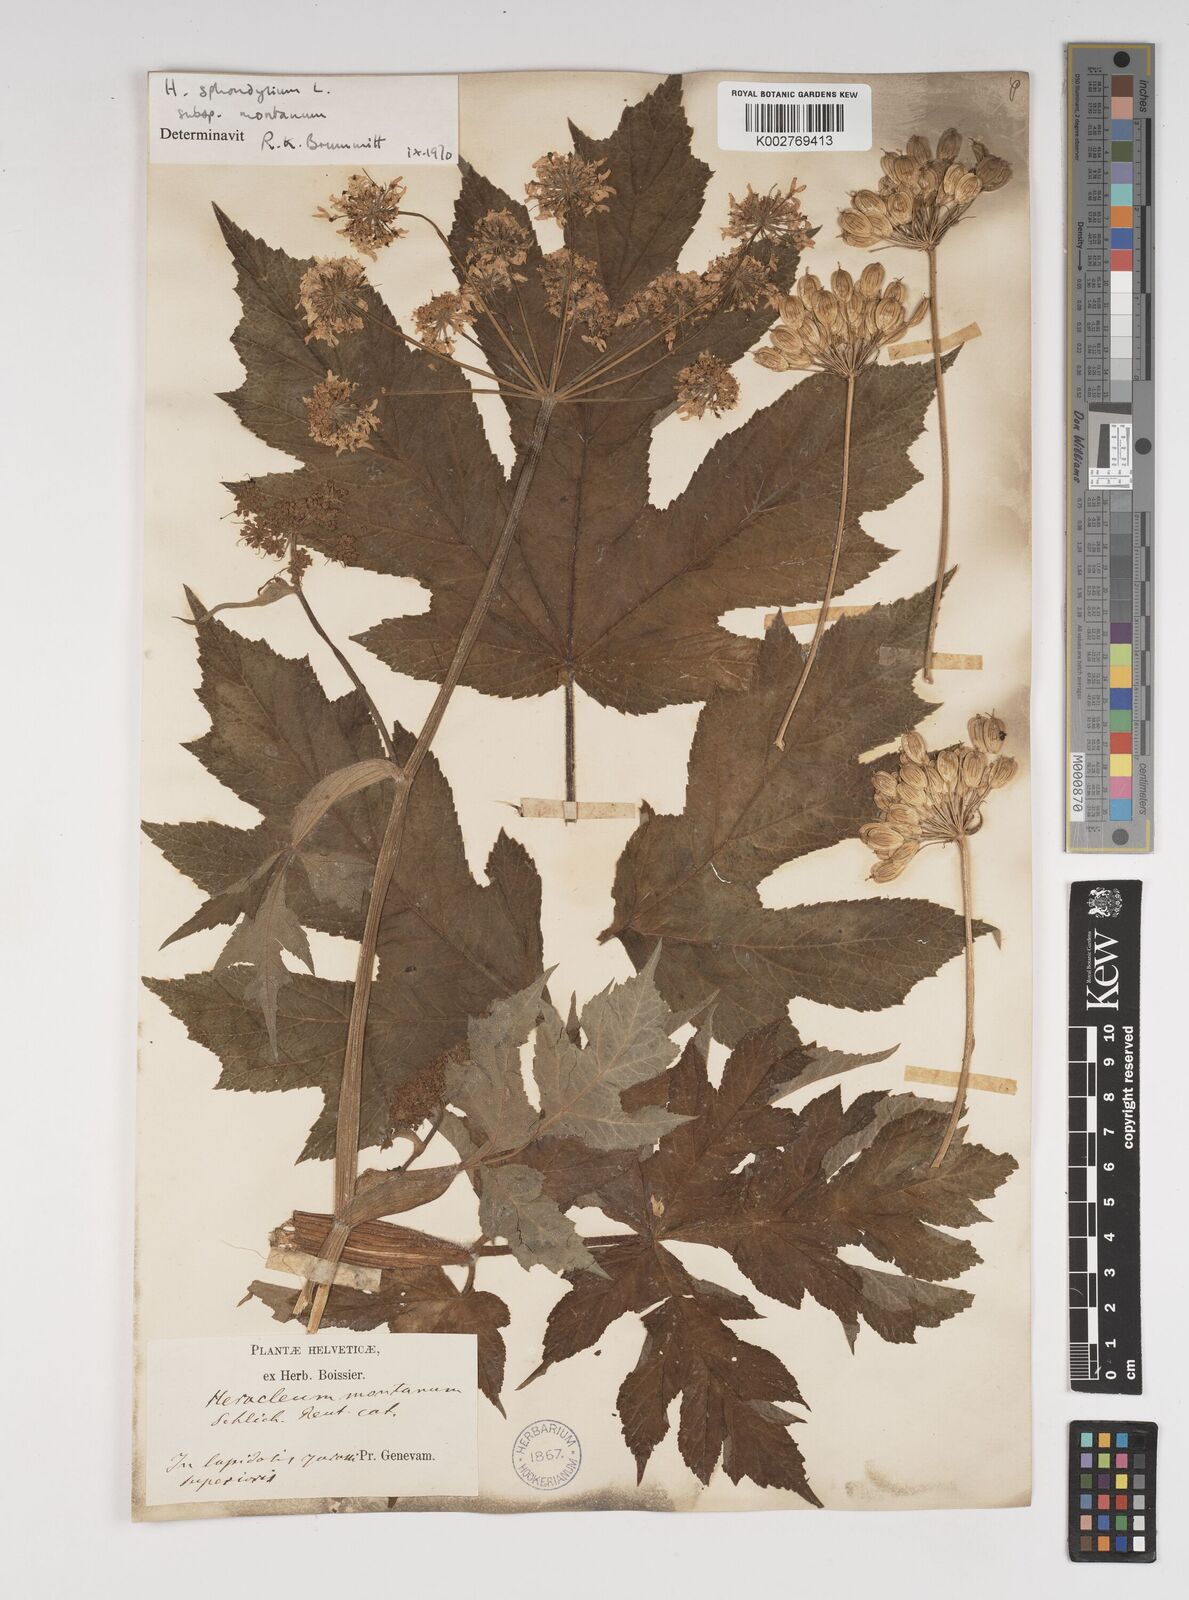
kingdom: Plantae
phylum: Tracheophyta
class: Magnoliopsida
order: Apiales
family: Apiaceae
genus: Heracleum
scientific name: Heracleum sphondylium
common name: Hogweed
